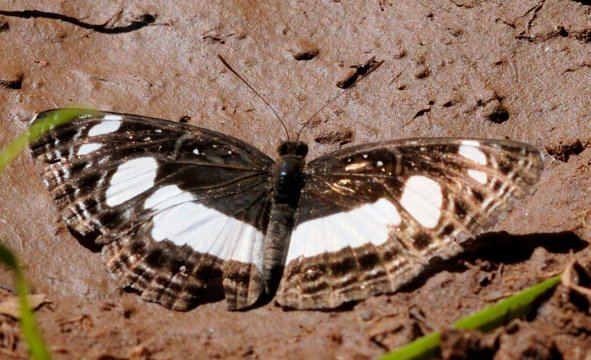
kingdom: Animalia
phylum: Arthropoda
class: Insecta
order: Lepidoptera
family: Nymphalidae
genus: Neptis
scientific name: Neptis saclava
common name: Spotted Sailer
